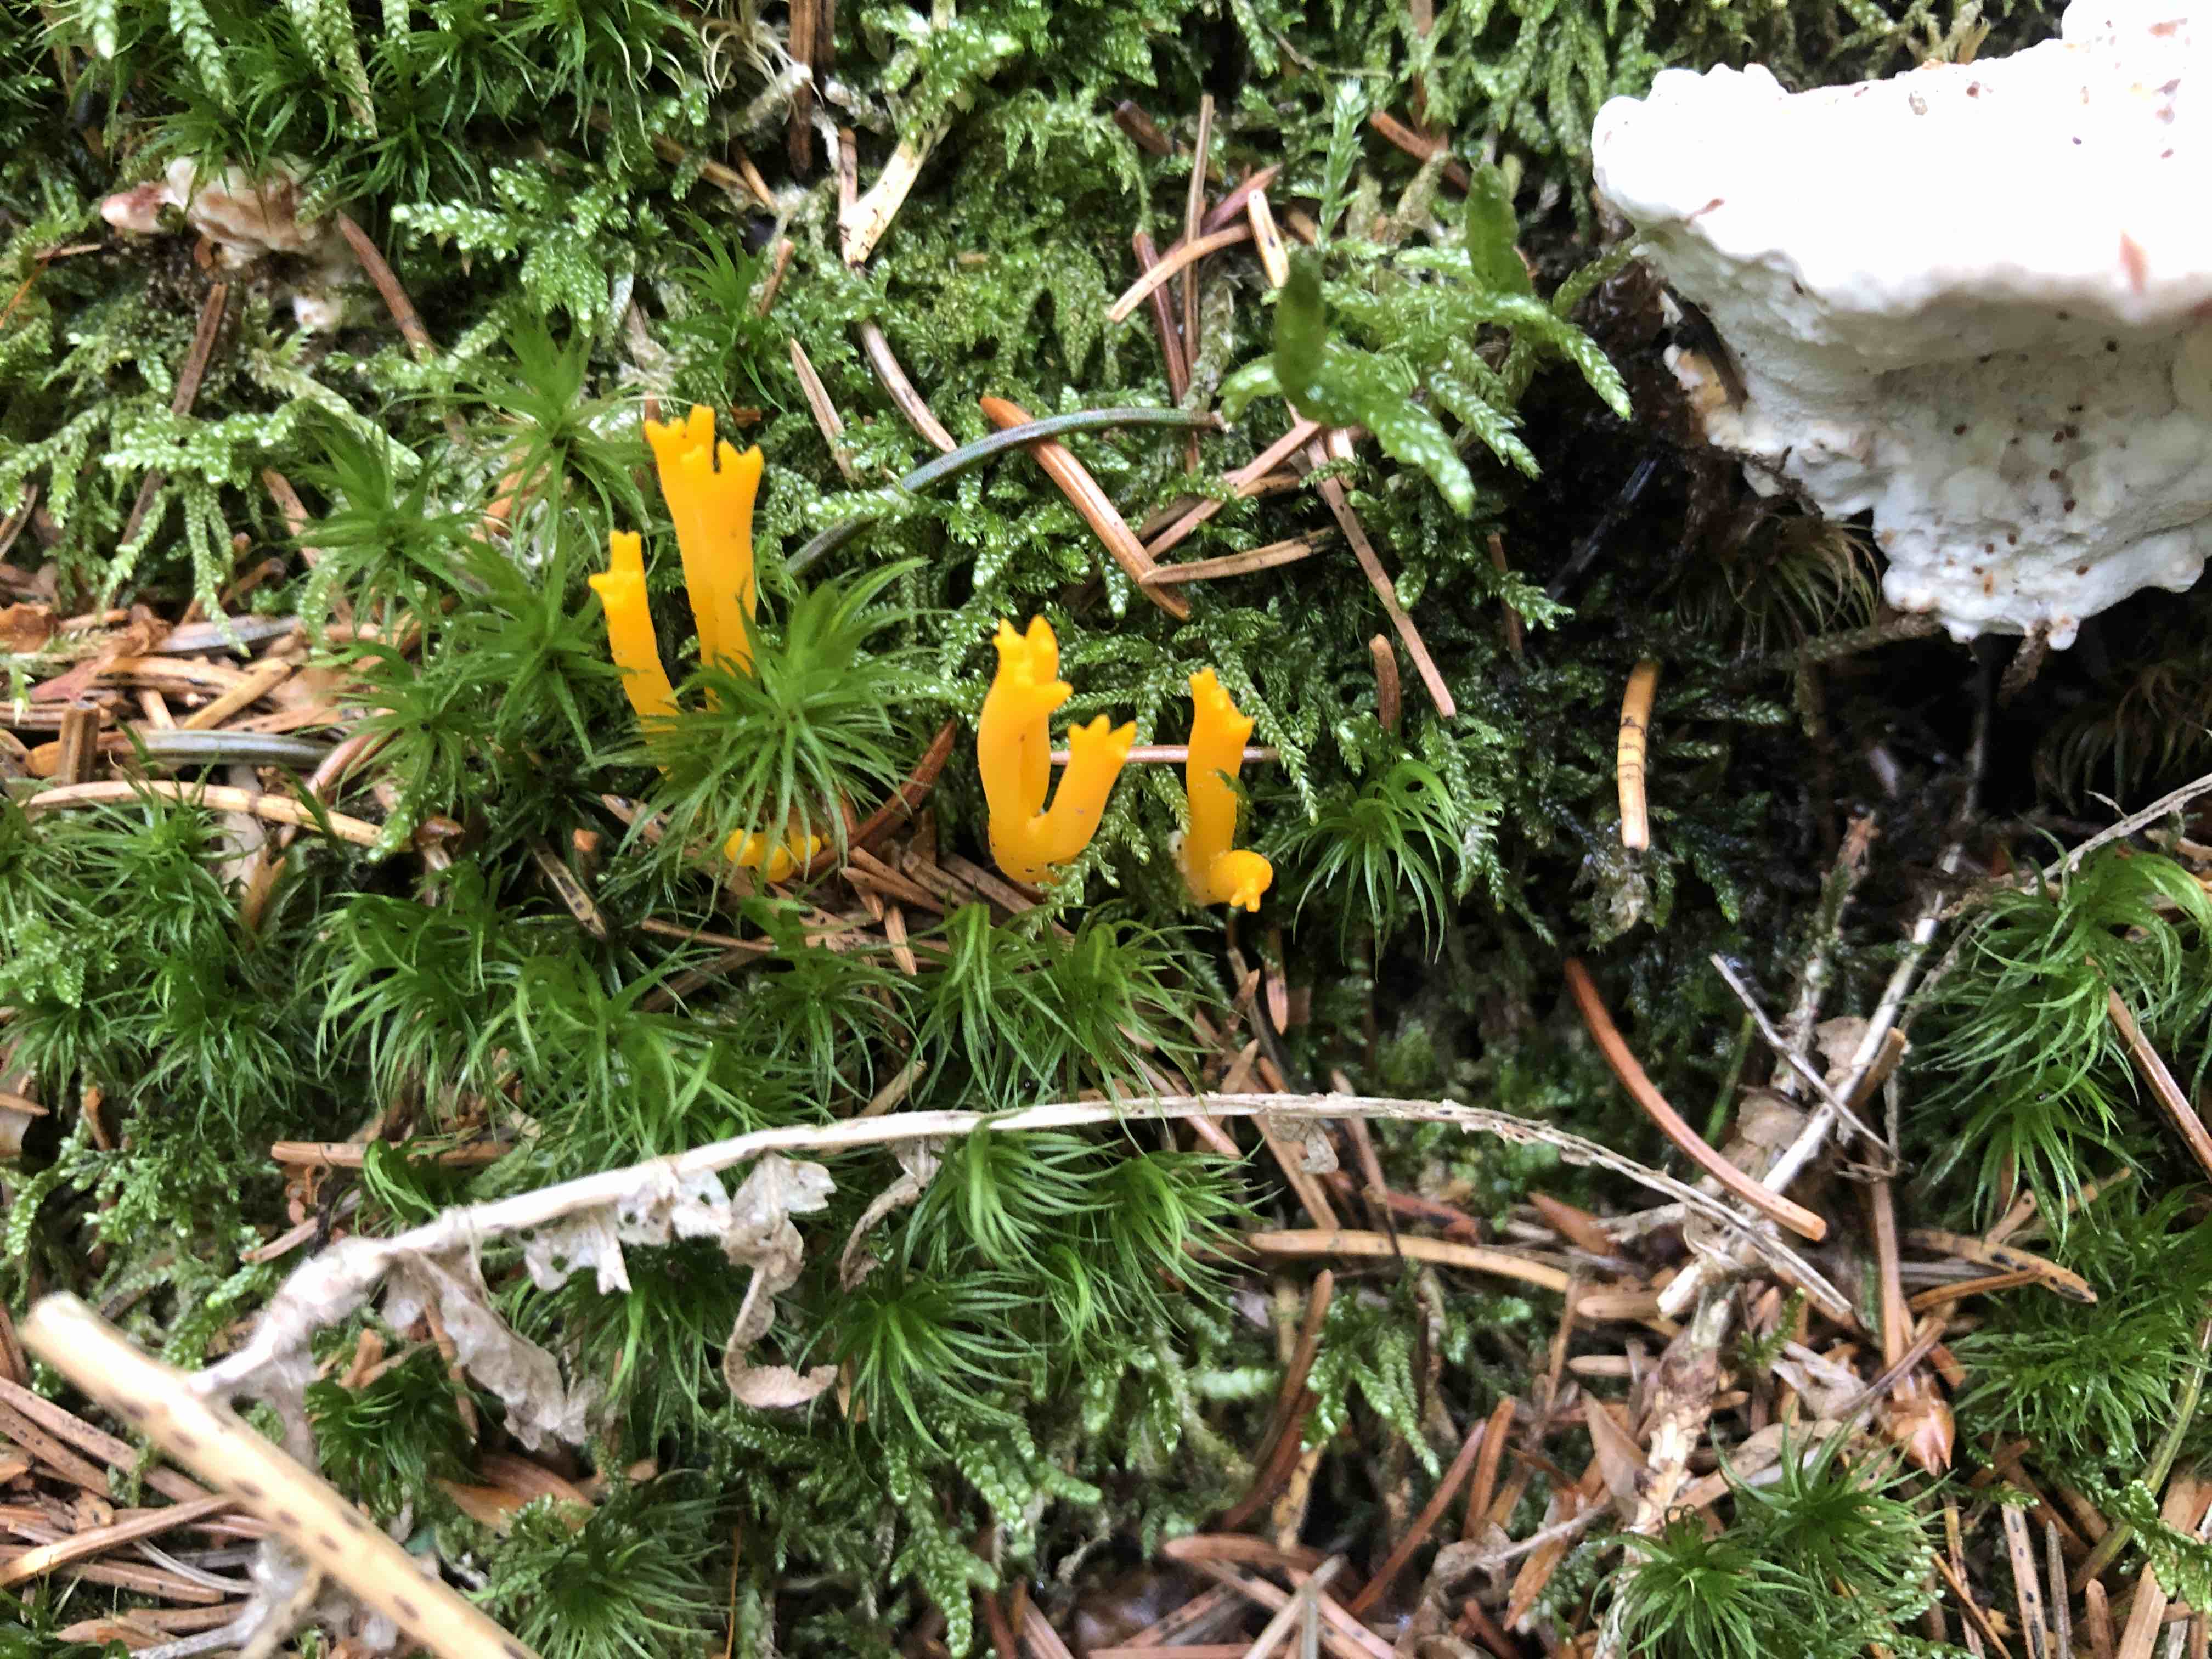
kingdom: Fungi
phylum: Basidiomycota
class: Dacrymycetes
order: Dacrymycetales
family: Dacrymycetaceae
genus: Calocera
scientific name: Calocera viscosa
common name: almindelig guldgaffel
